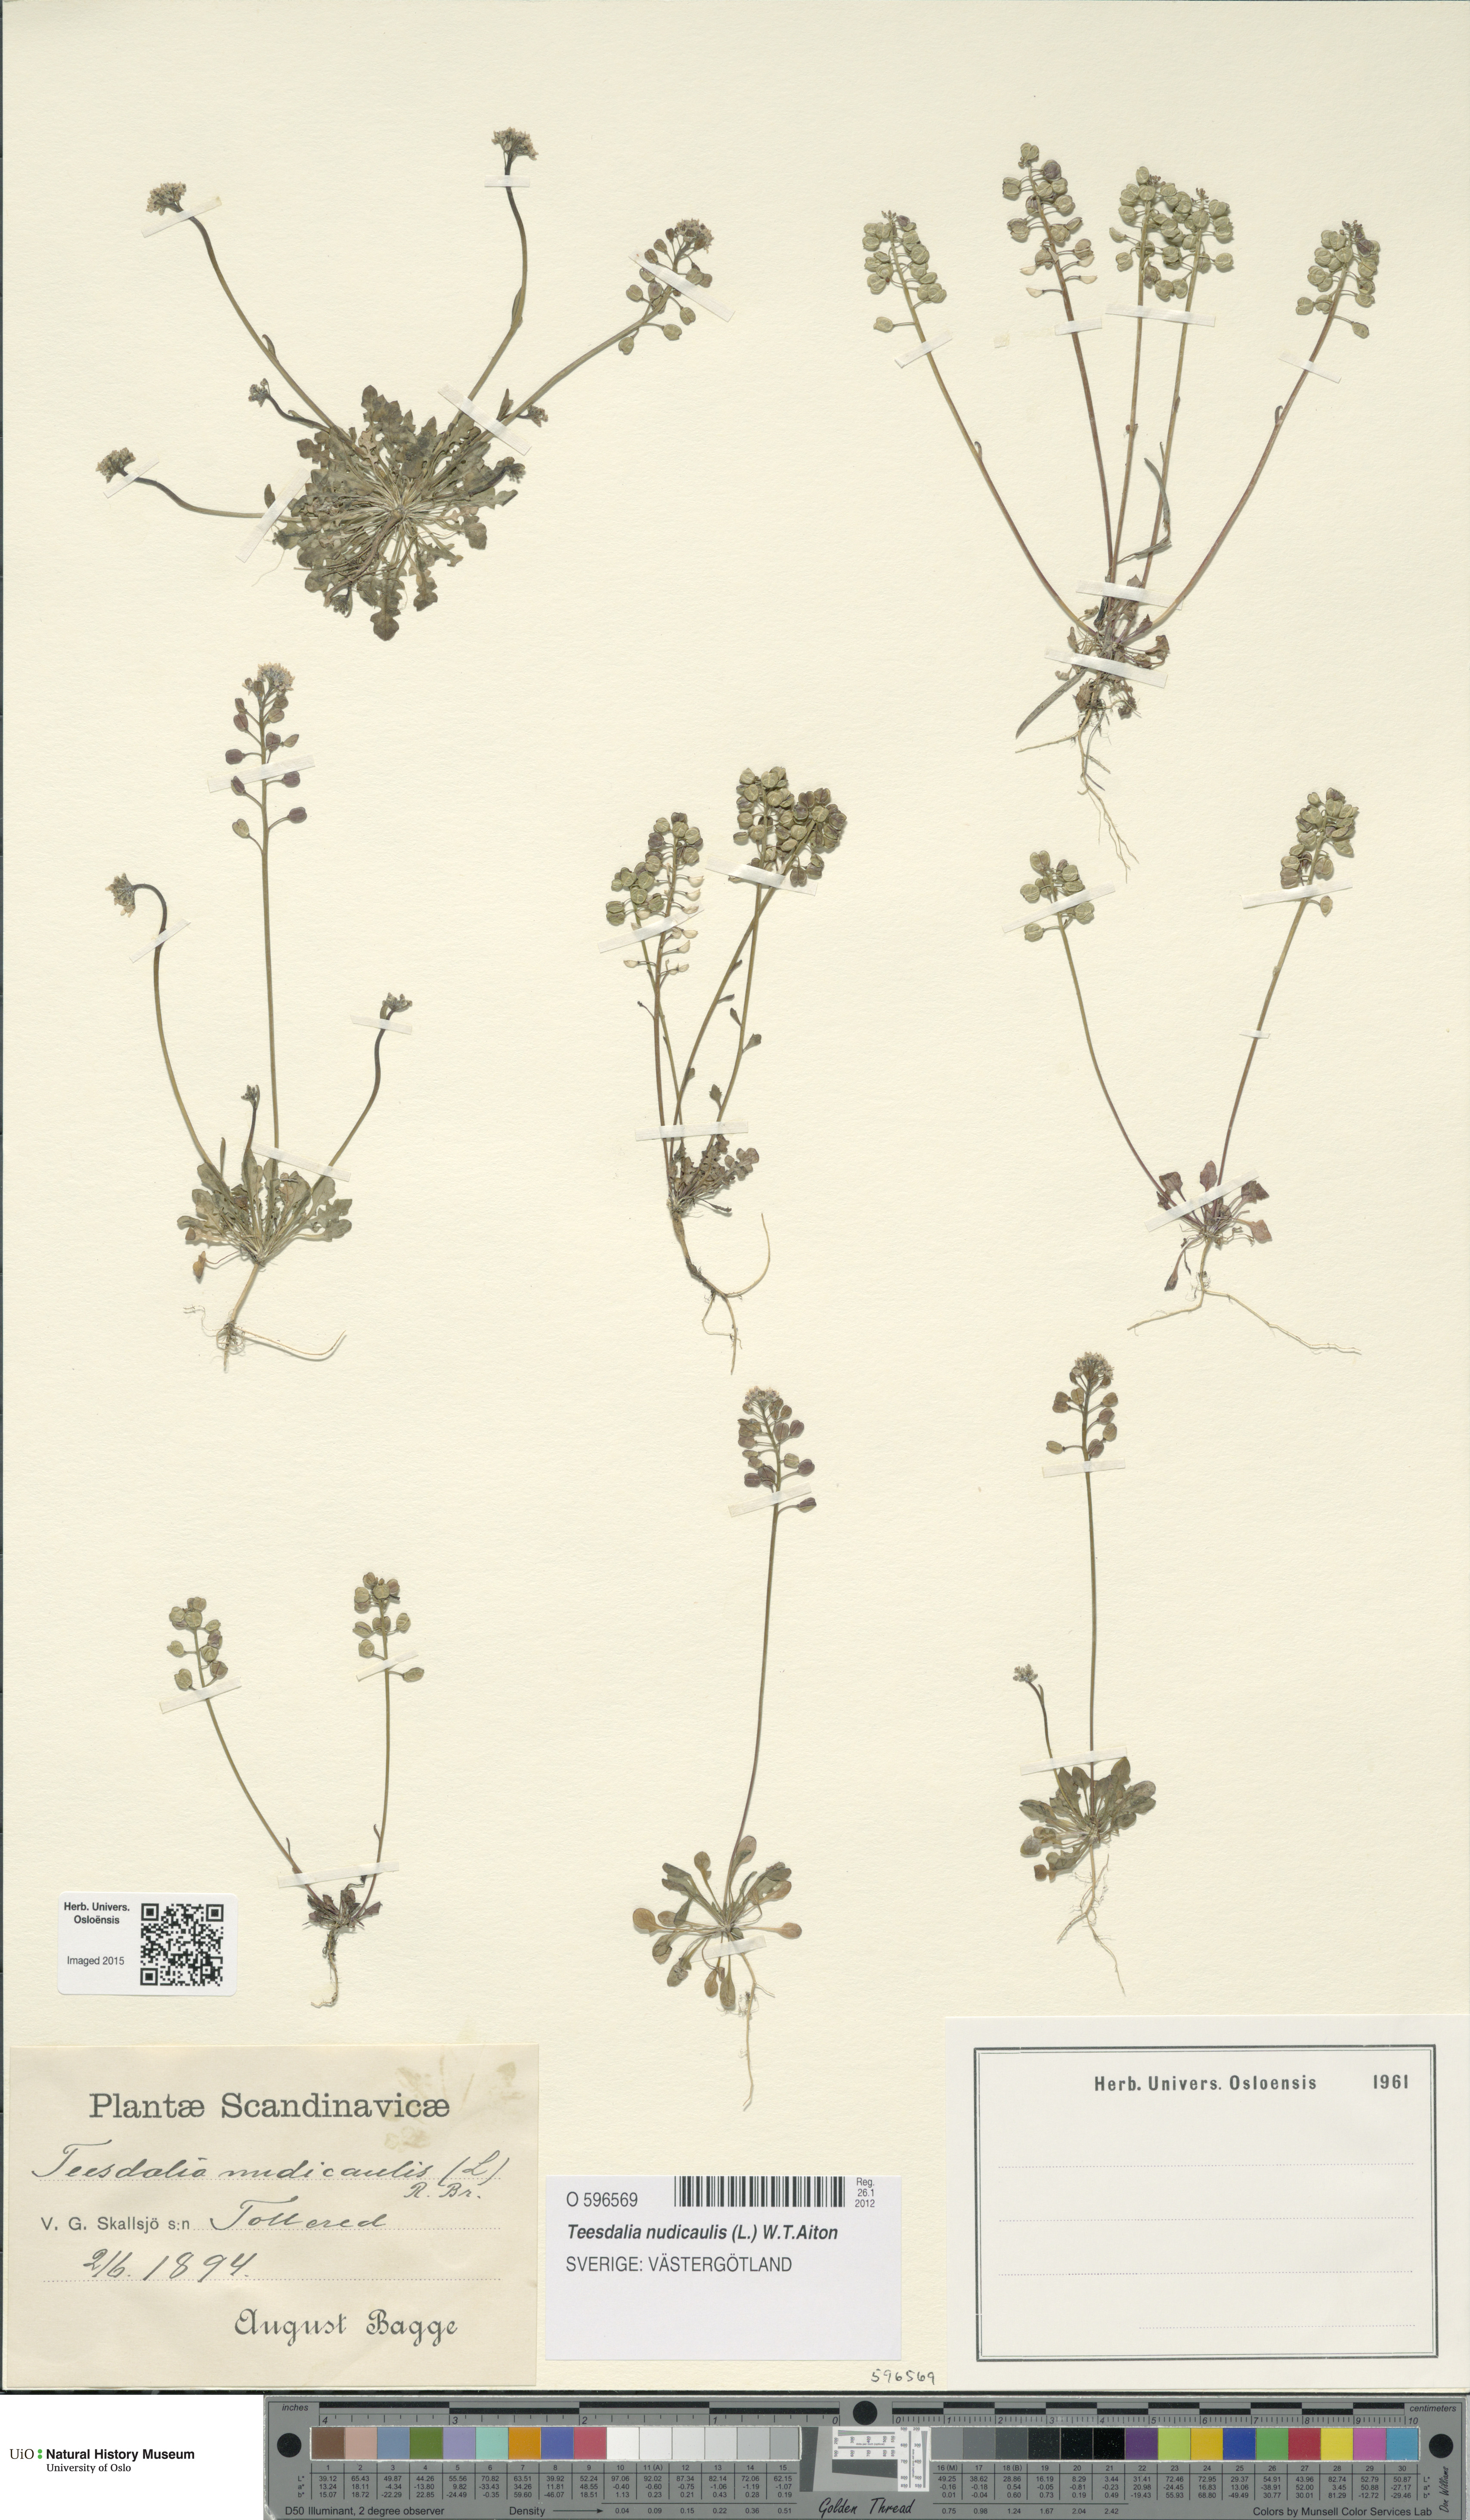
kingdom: Plantae
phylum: Tracheophyta
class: Magnoliopsida
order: Brassicales
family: Brassicaceae
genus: Teesdalia
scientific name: Teesdalia nudicaulis
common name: Shepherd's cress
